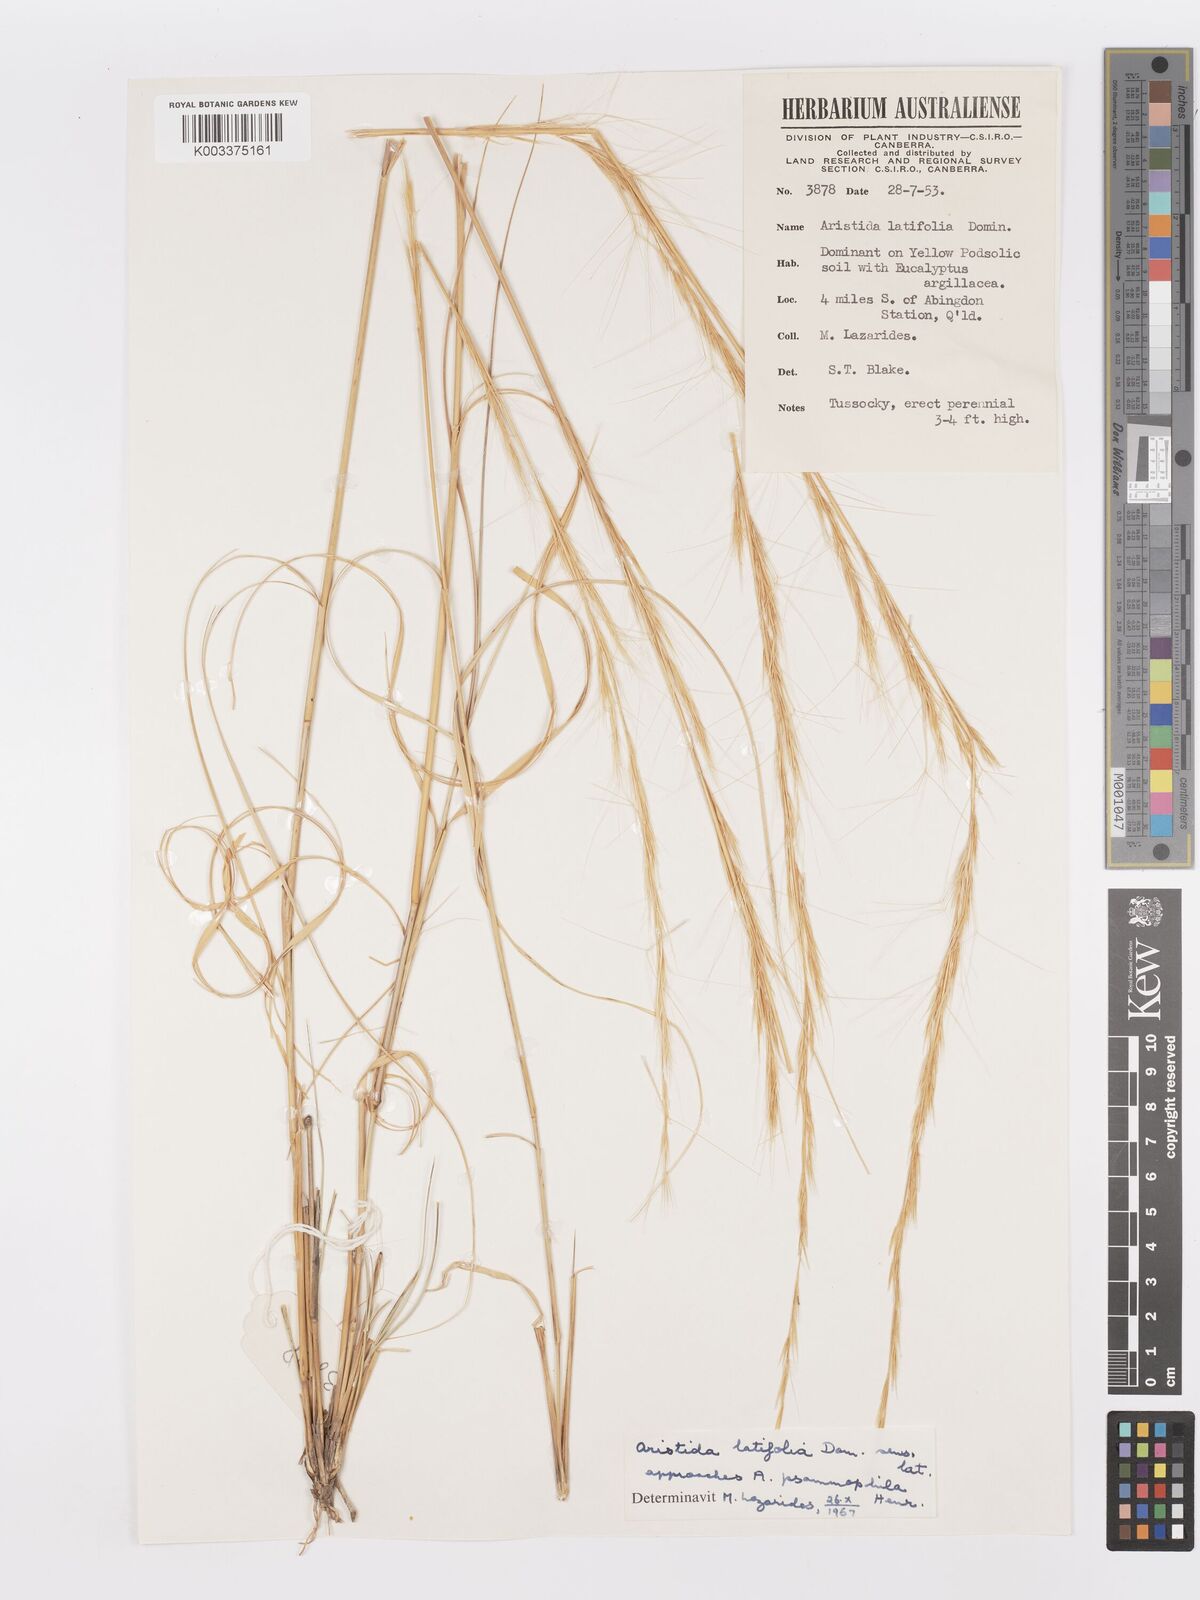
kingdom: Plantae
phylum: Tracheophyta
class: Liliopsida
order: Poales
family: Poaceae
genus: Aristida
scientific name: Aristida latifolia
